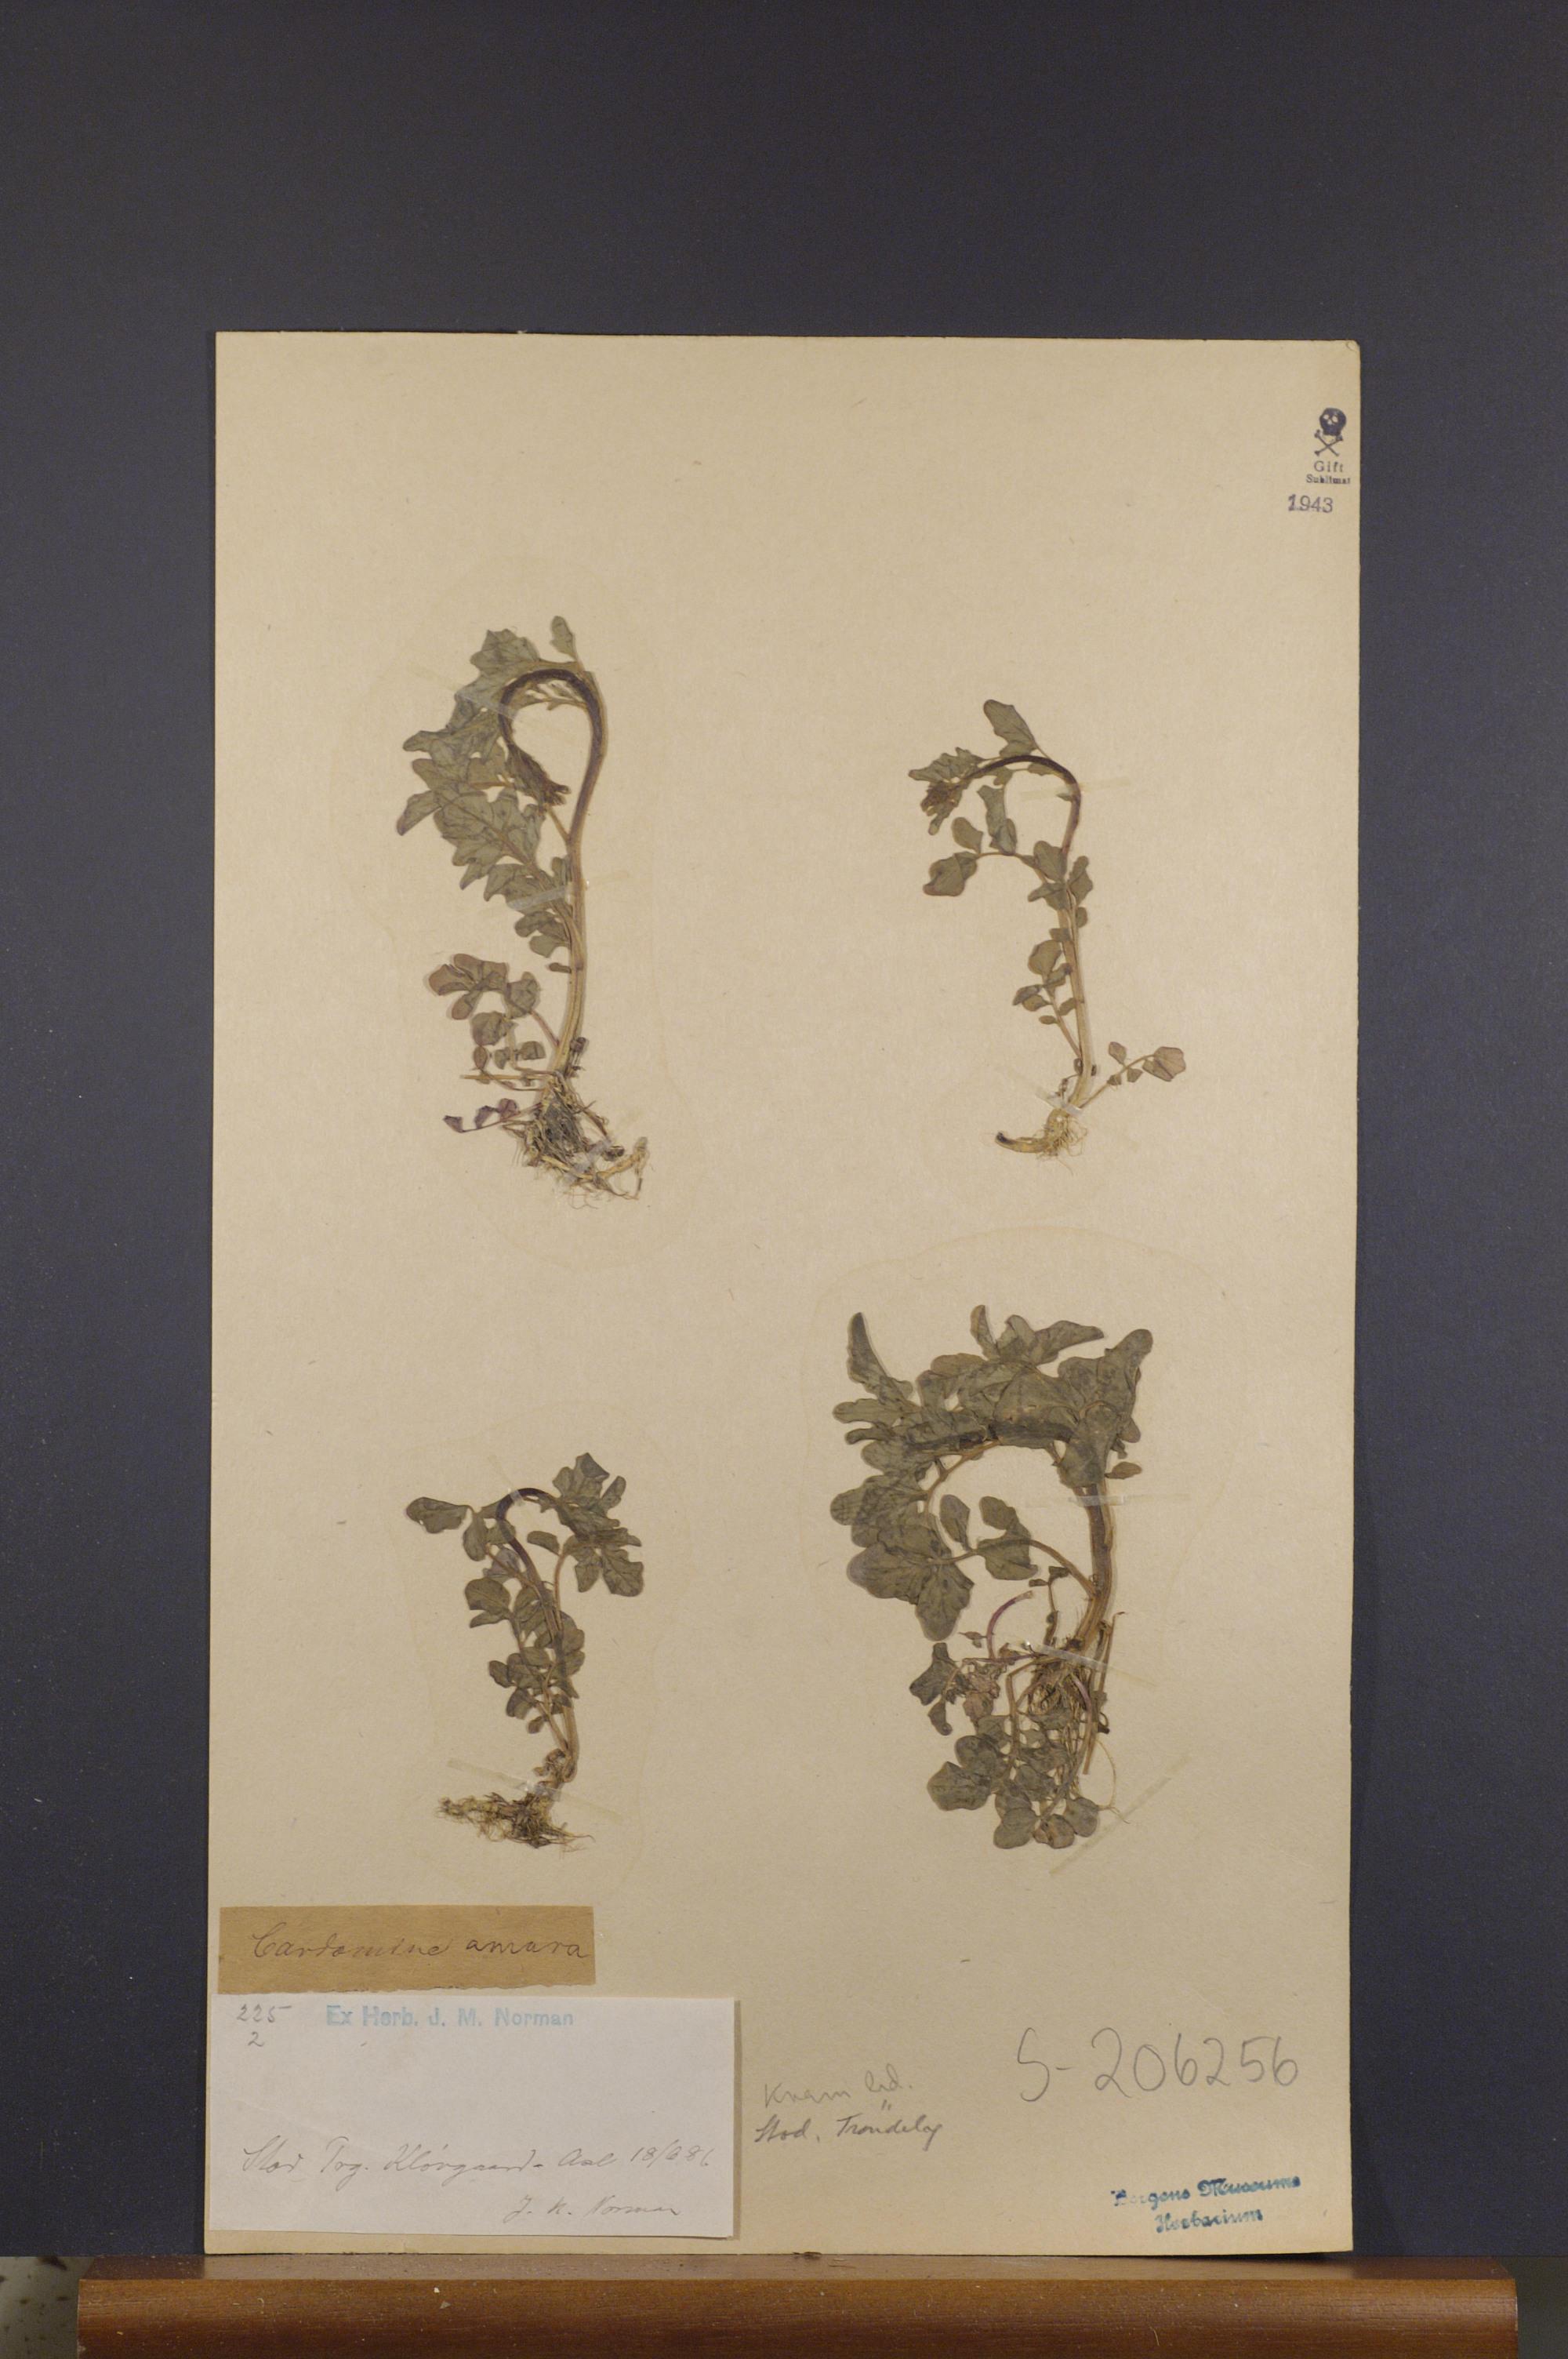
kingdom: Plantae
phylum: Tracheophyta
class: Magnoliopsida
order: Brassicales
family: Brassicaceae
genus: Cardamine
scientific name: Cardamine amara
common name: Large bitter-cress
